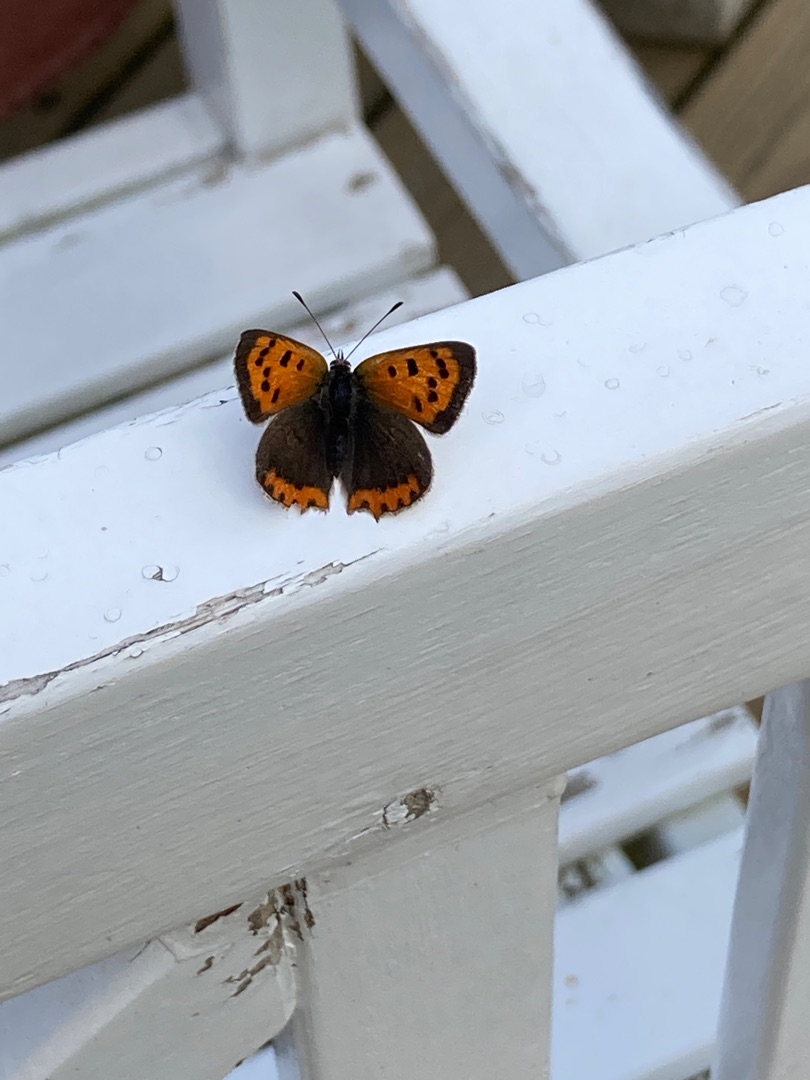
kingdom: Animalia
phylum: Arthropoda
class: Insecta
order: Lepidoptera
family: Lycaenidae
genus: Lycaena
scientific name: Lycaena phlaeas
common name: Lille ildfugl
